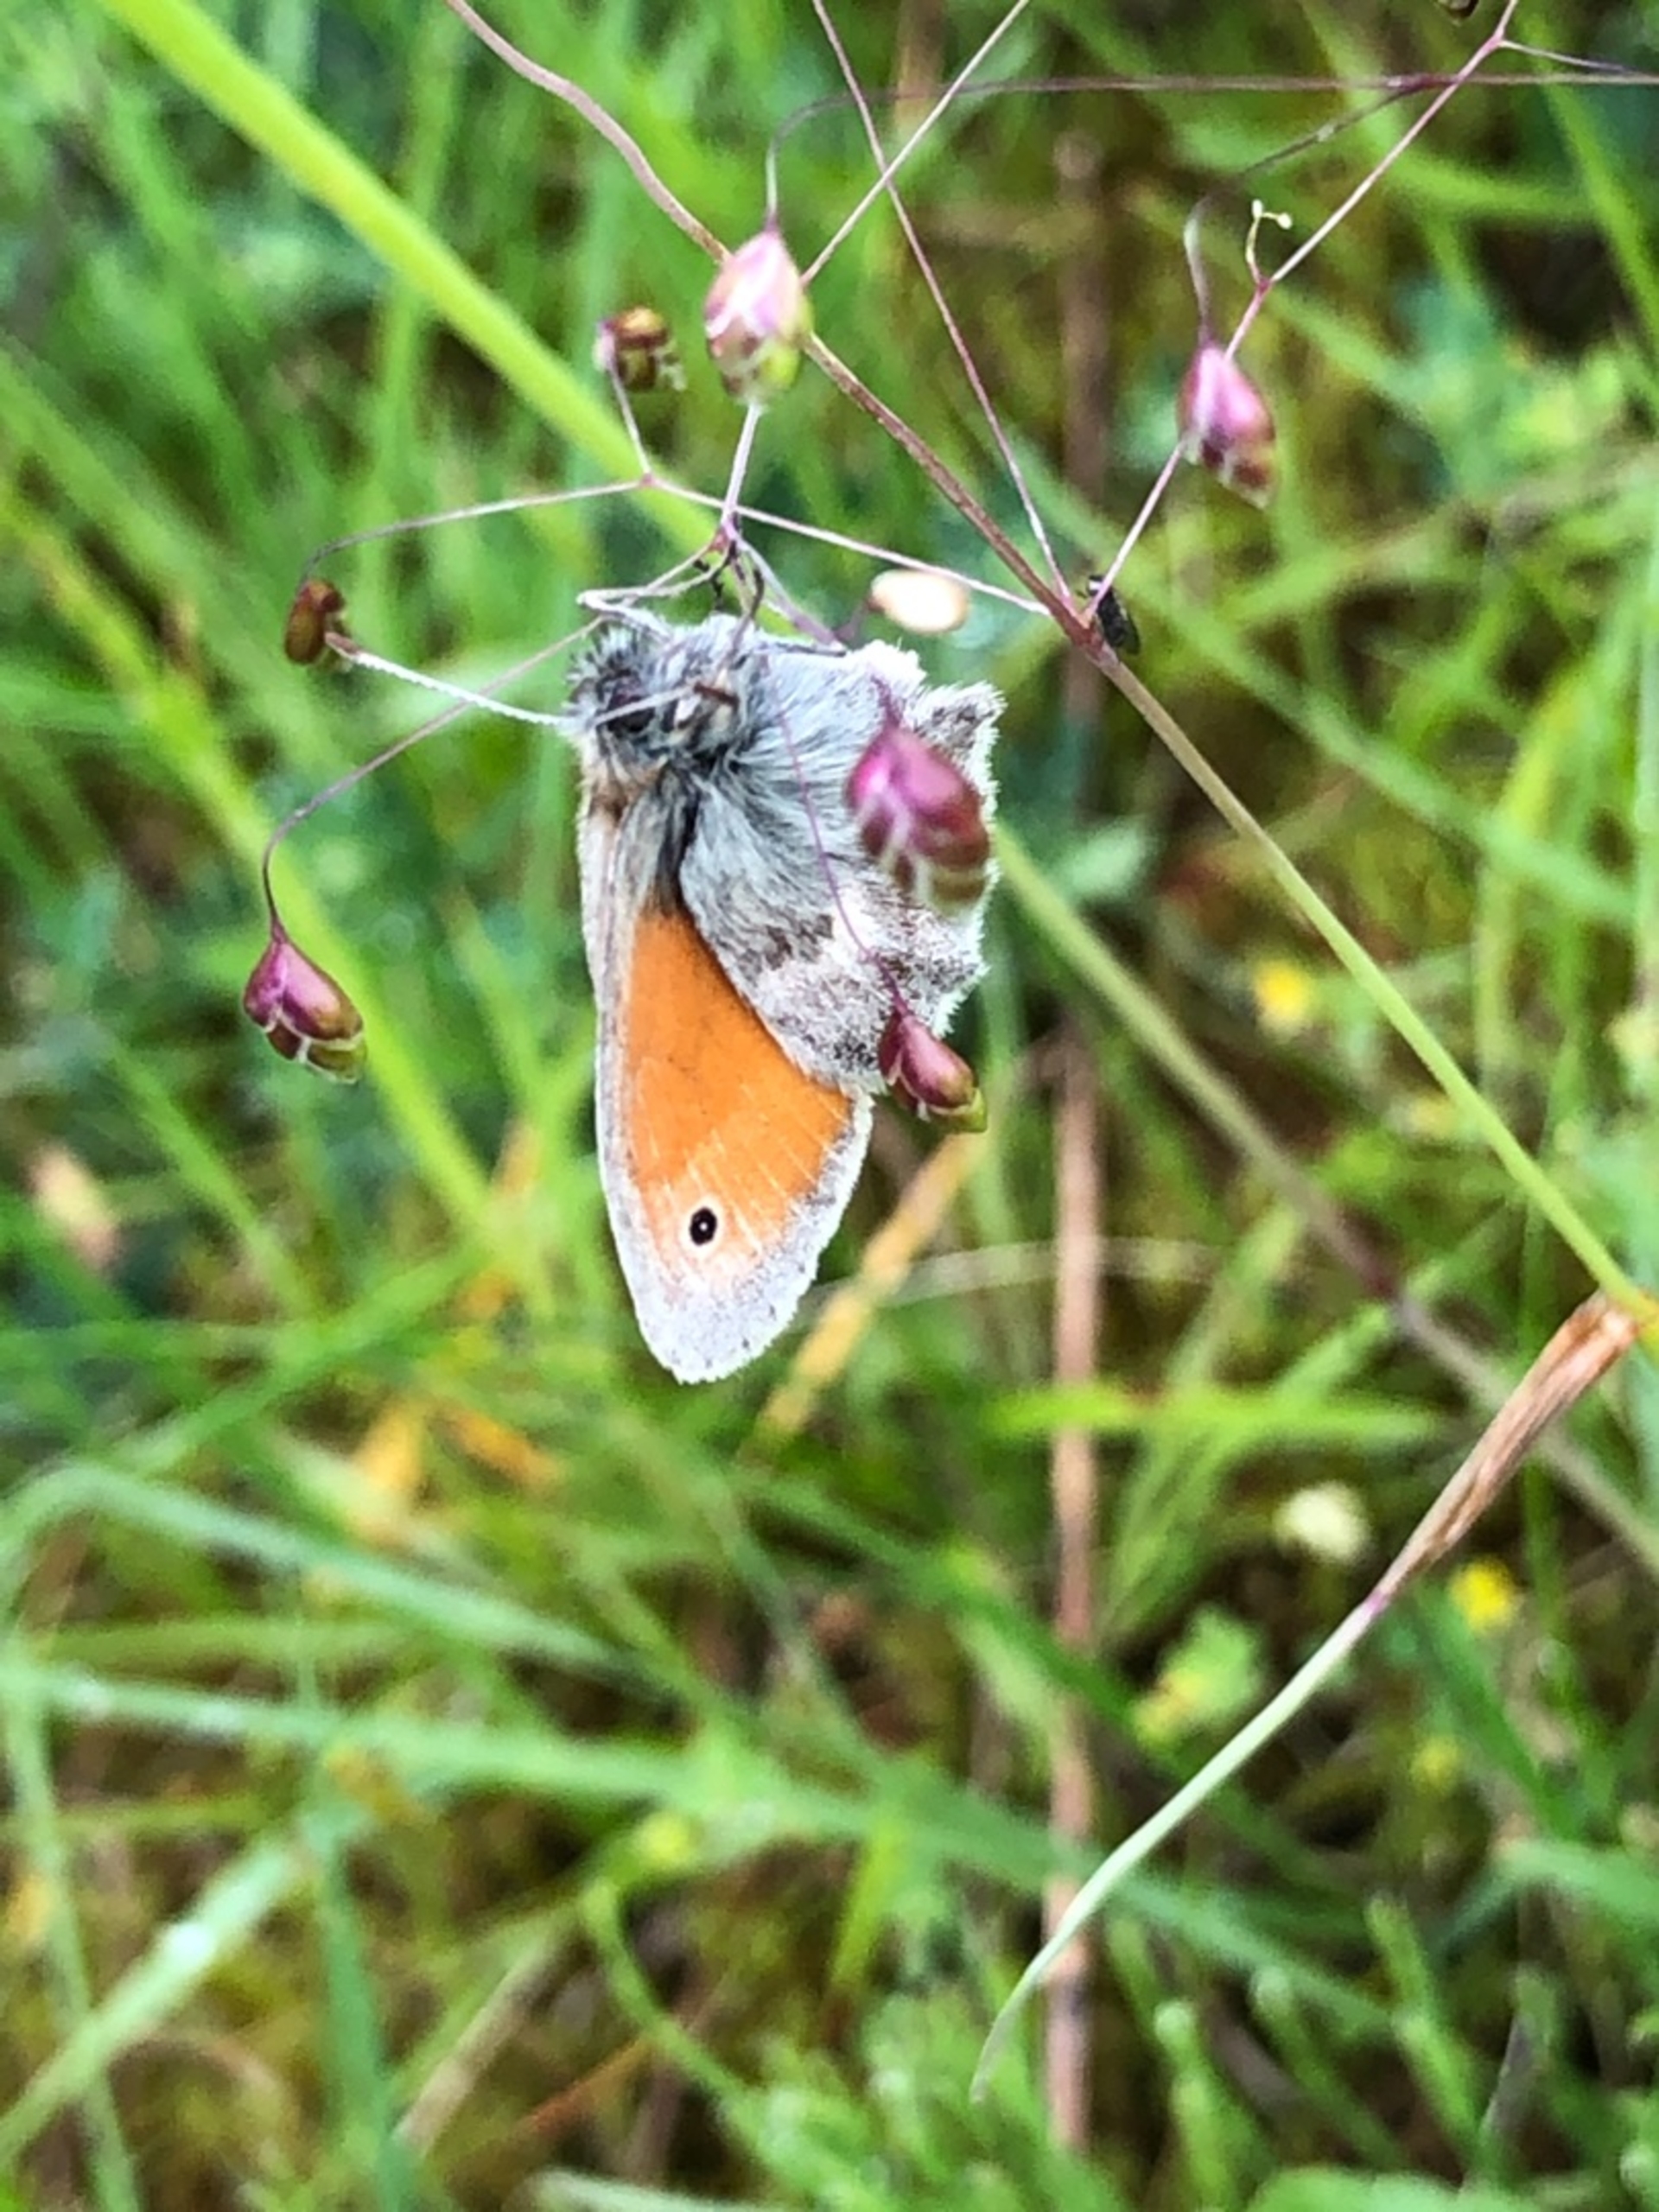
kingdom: Animalia
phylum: Arthropoda
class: Insecta
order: Lepidoptera
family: Nymphalidae
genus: Coenonympha
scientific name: Coenonympha pamphilus
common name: Okkergul randøje
